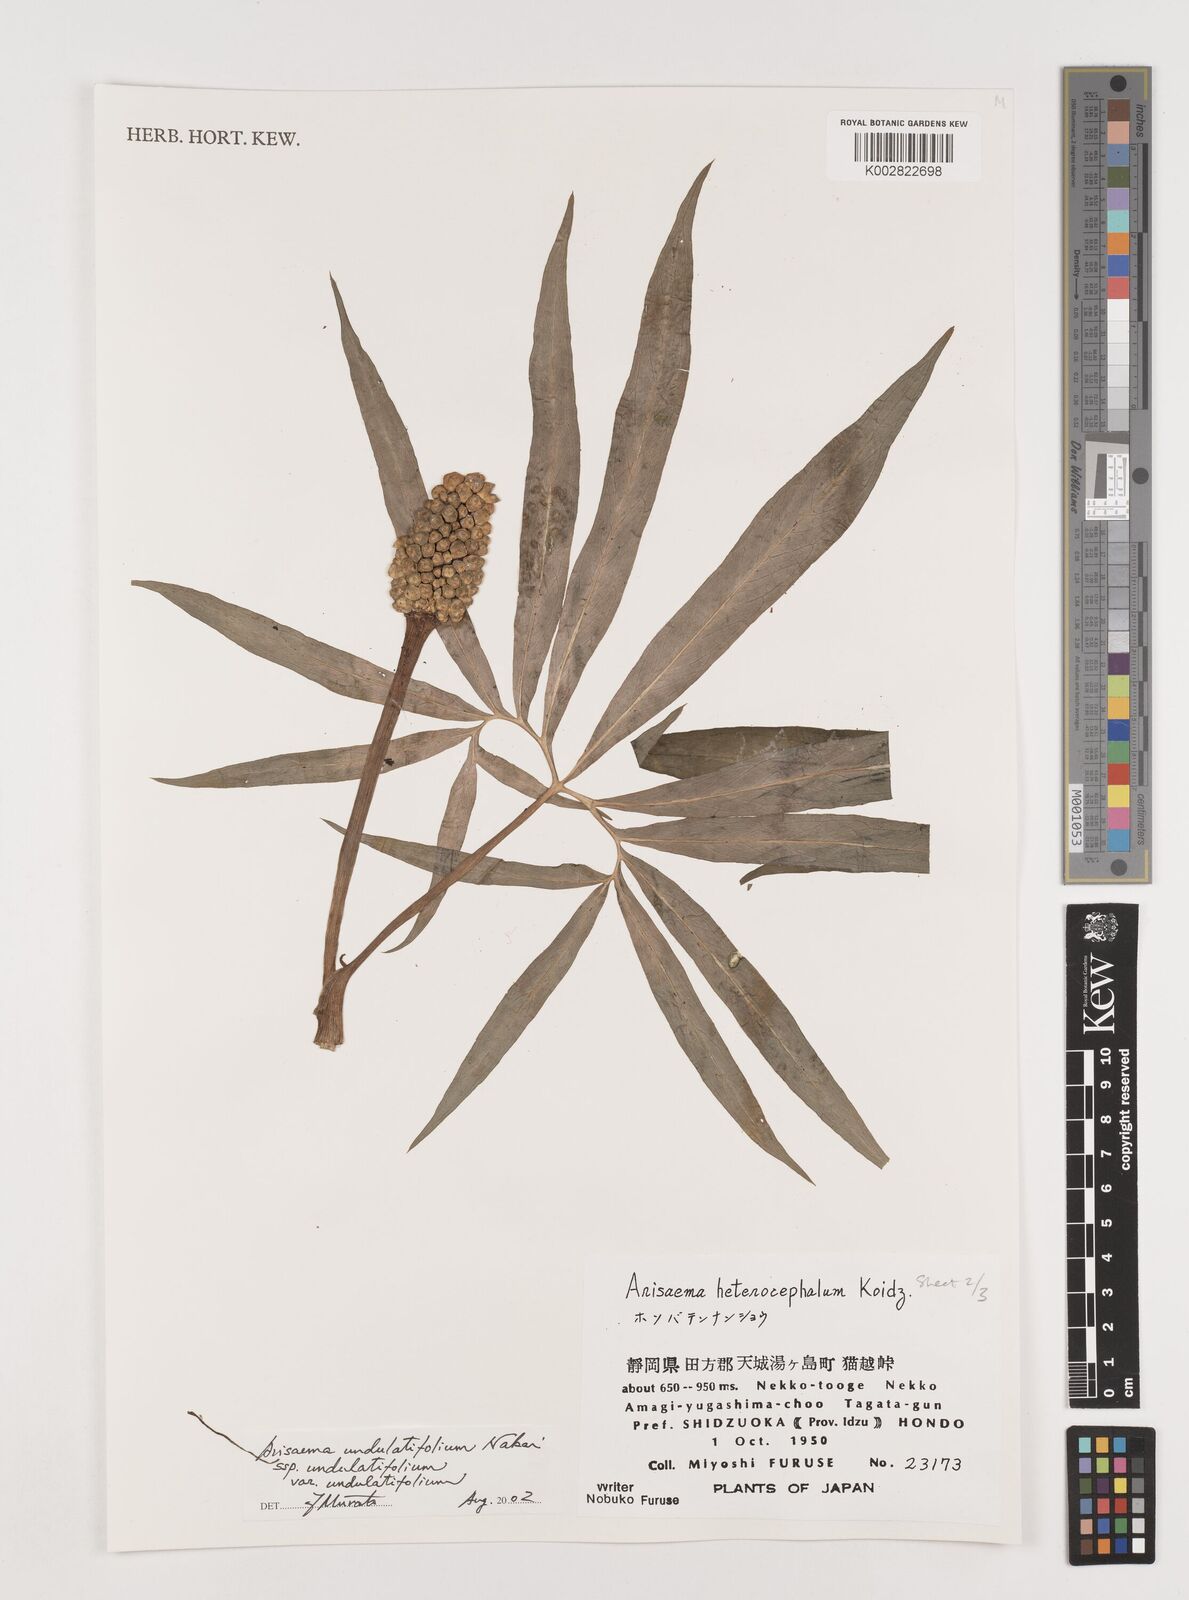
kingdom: Plantae
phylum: Tracheophyta
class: Liliopsida
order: Alismatales
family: Araceae
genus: Arisaema
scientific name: Arisaema undulatifolium
